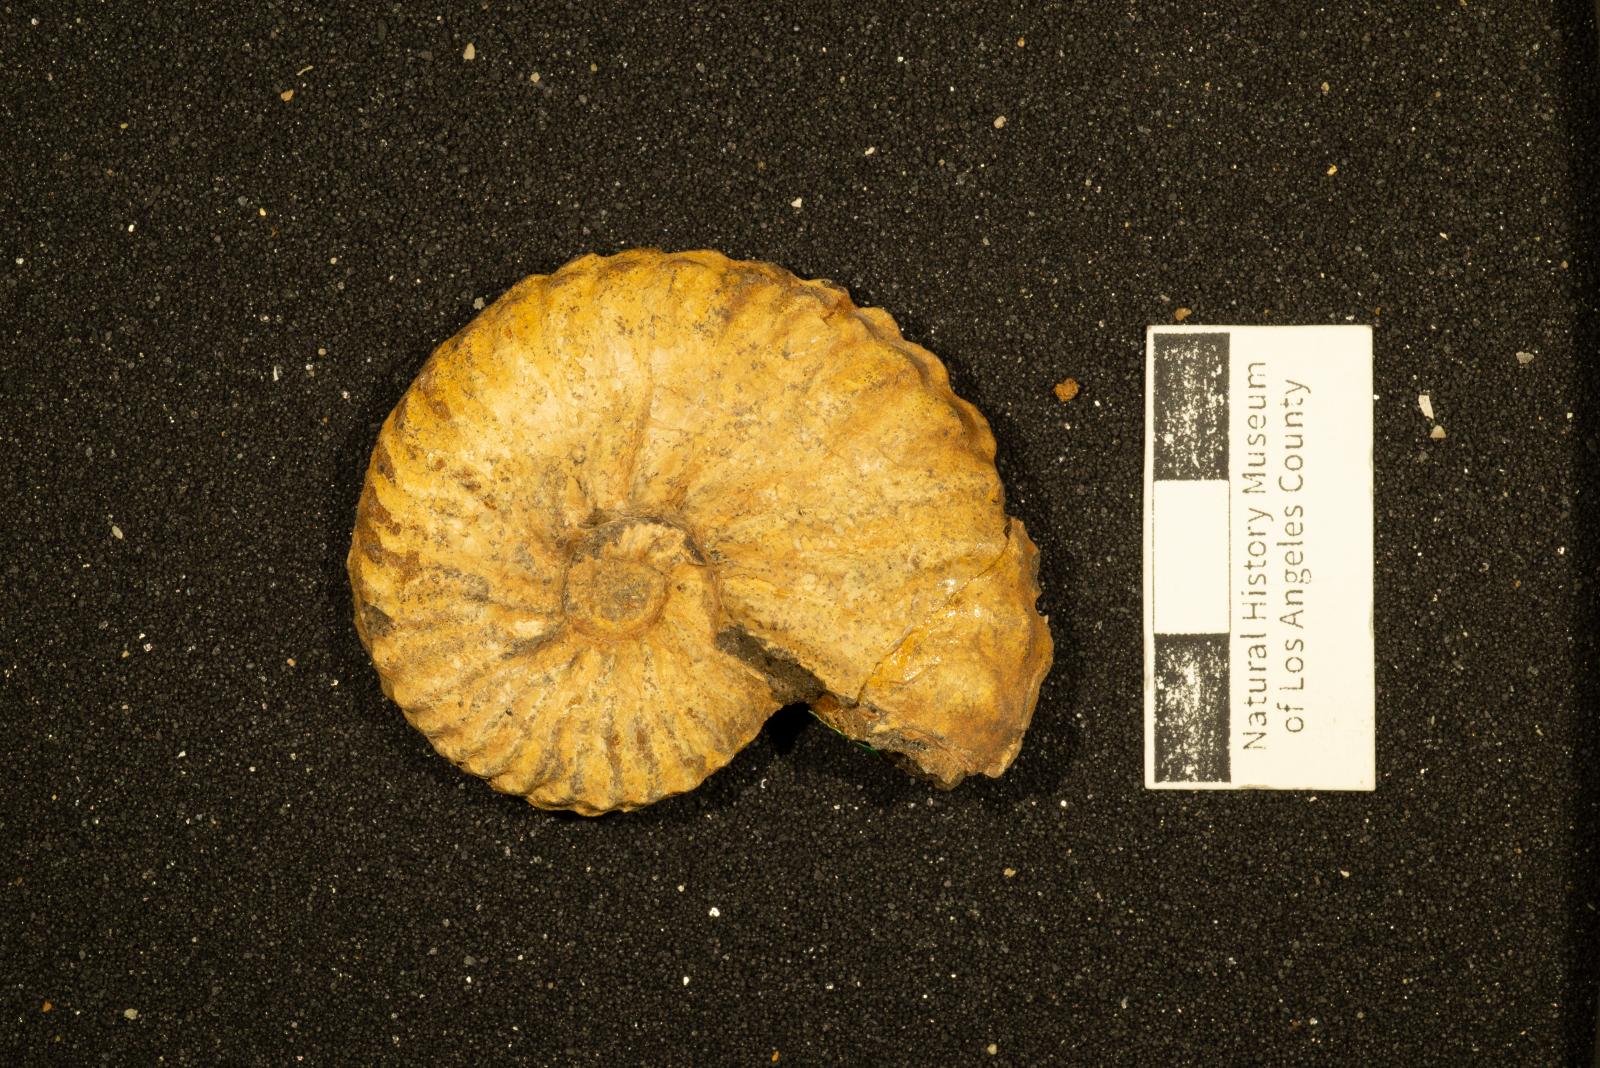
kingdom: Animalia
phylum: Mollusca
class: Cephalopoda
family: Collignoniceratidae
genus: Subprionocyclus
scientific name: Subprionocyclus
